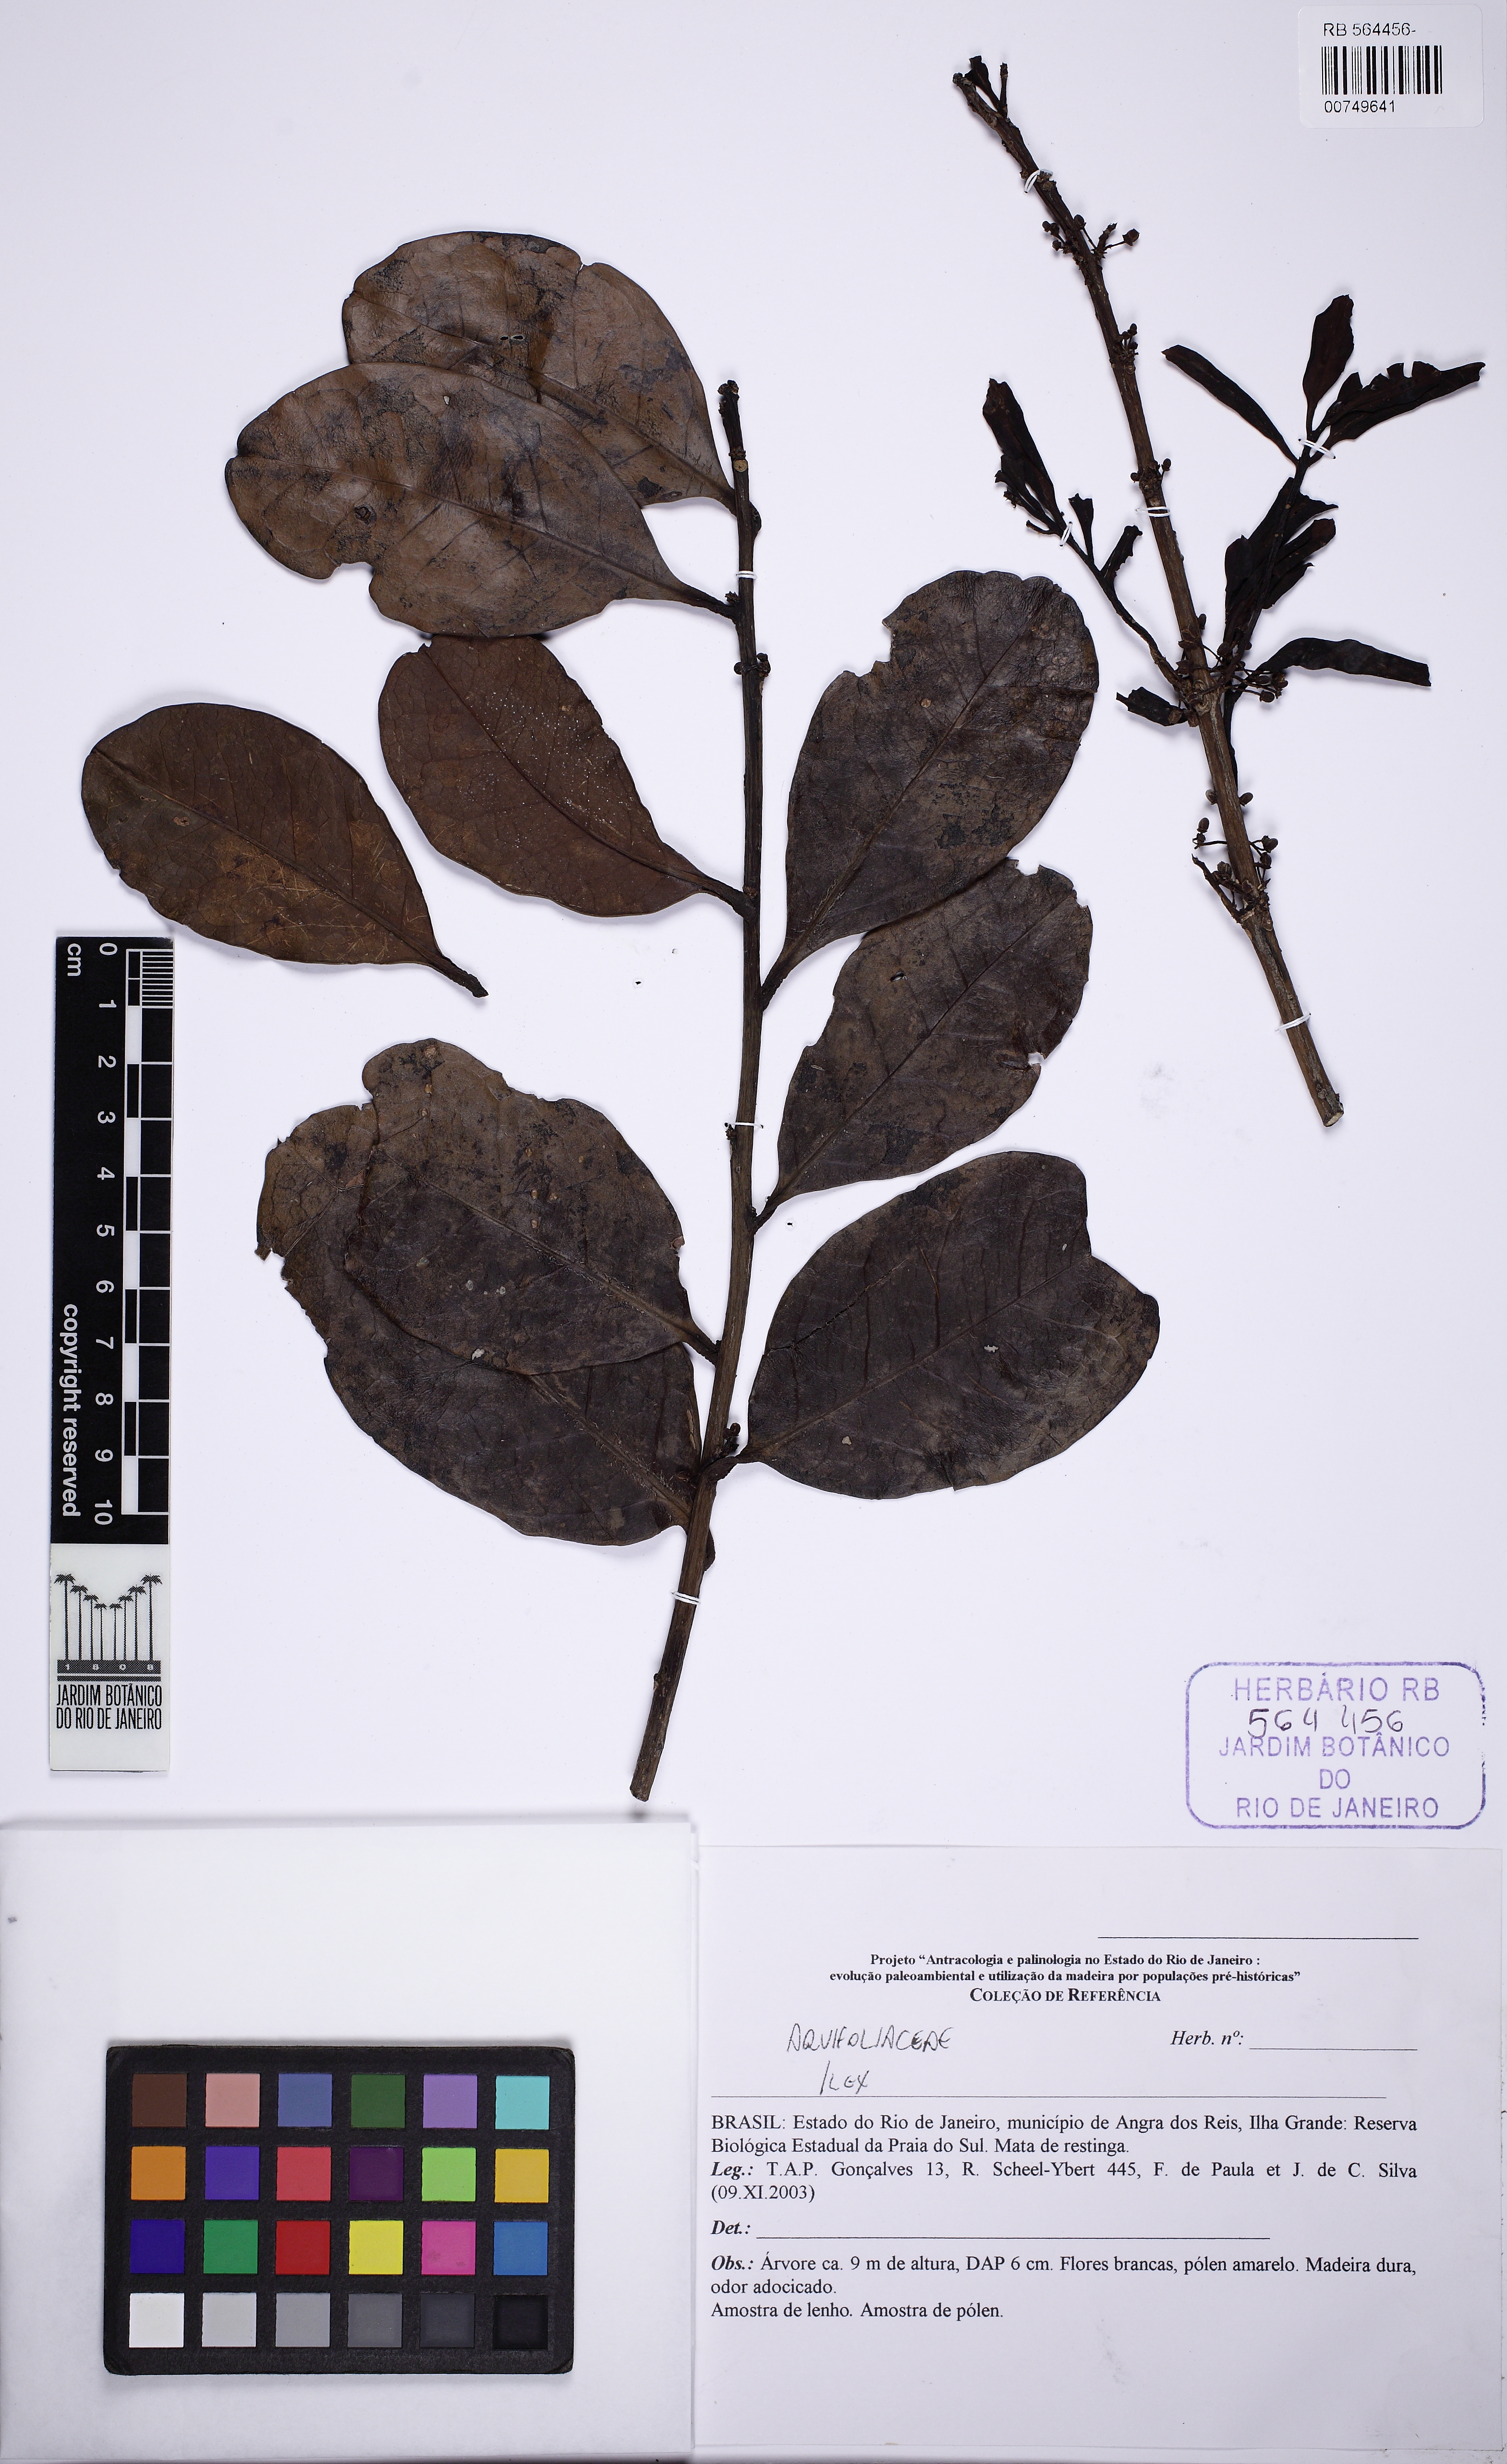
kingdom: Plantae
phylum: Tracheophyta
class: Magnoliopsida
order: Aquifoliales
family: Aquifoliaceae
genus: Ilex
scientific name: Ilex
